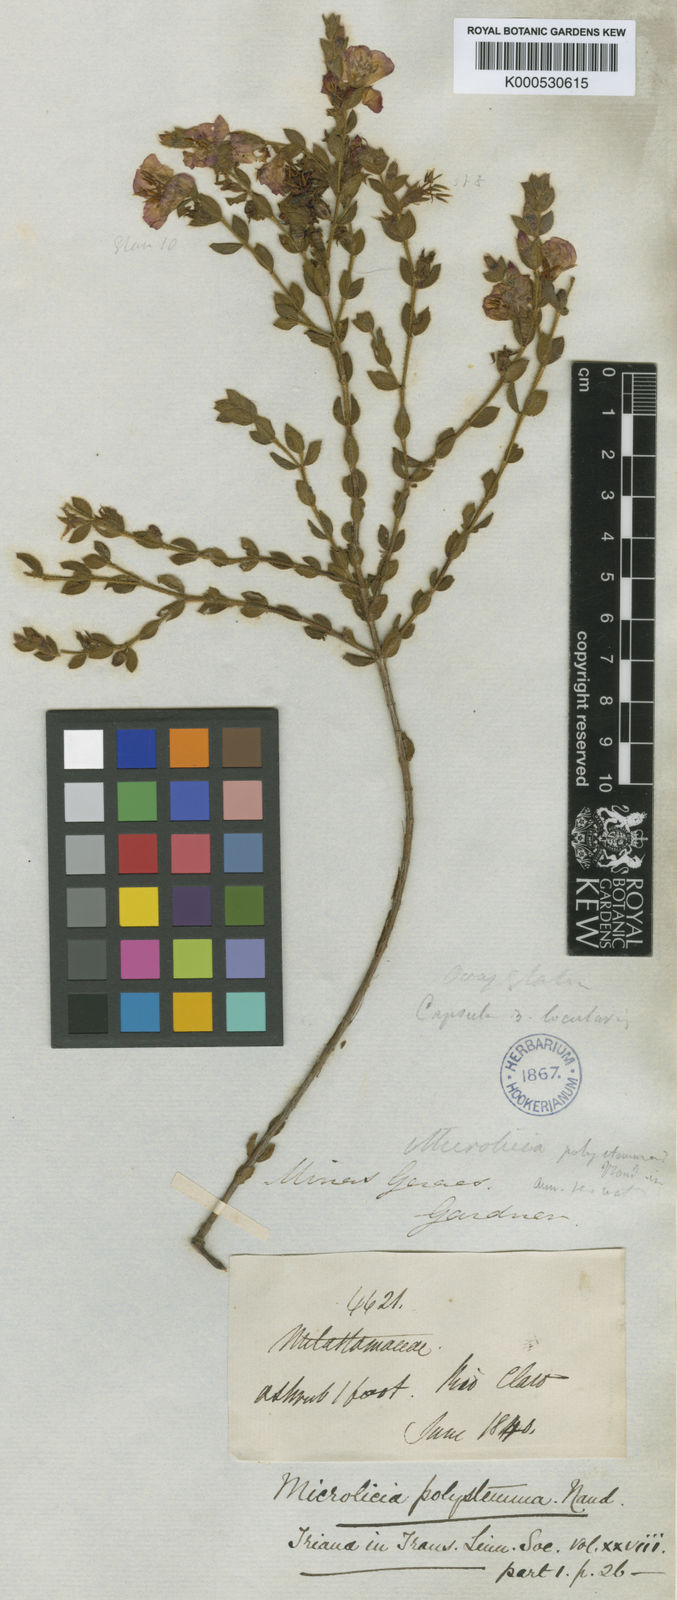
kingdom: Plantae
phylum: Tracheophyta
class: Magnoliopsida
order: Myrtales
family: Melastomataceae
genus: Microlicia
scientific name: Microlicia
